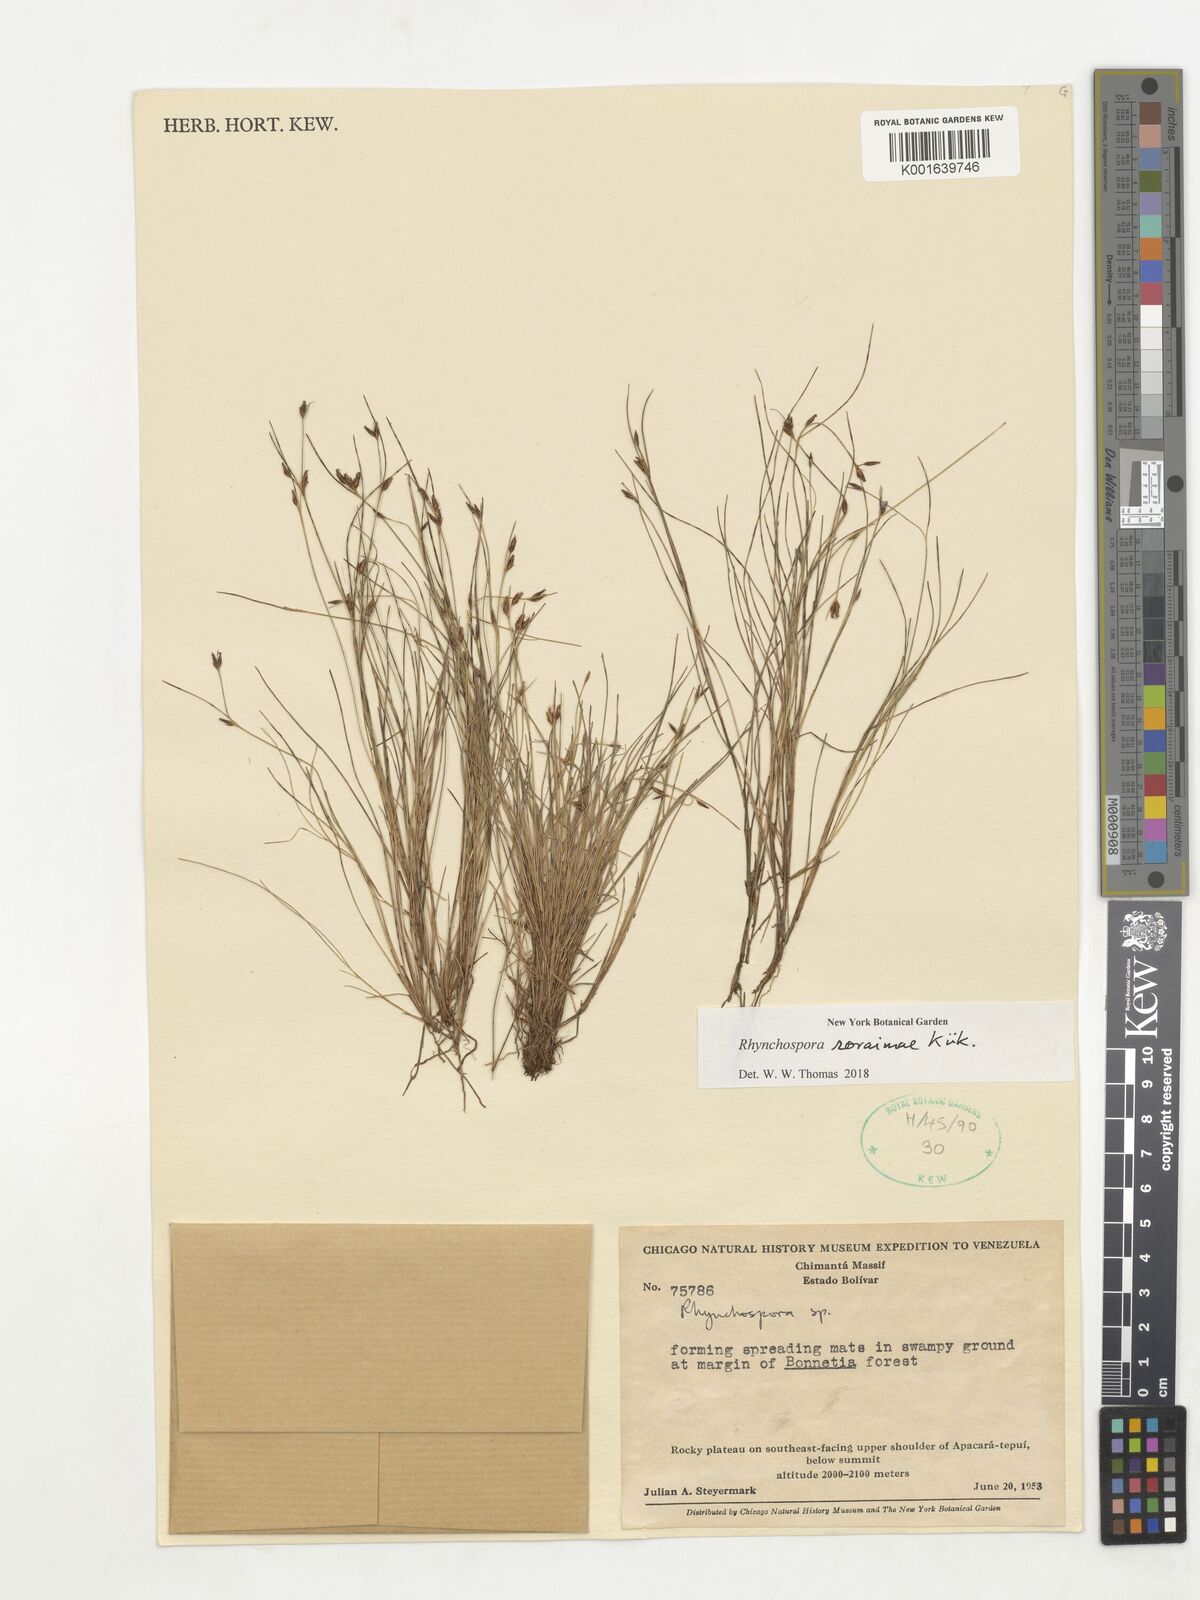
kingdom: Plantae
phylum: Tracheophyta
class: Liliopsida
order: Poales
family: Cyperaceae
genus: Rhynchospora
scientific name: Rhynchospora roraimae
